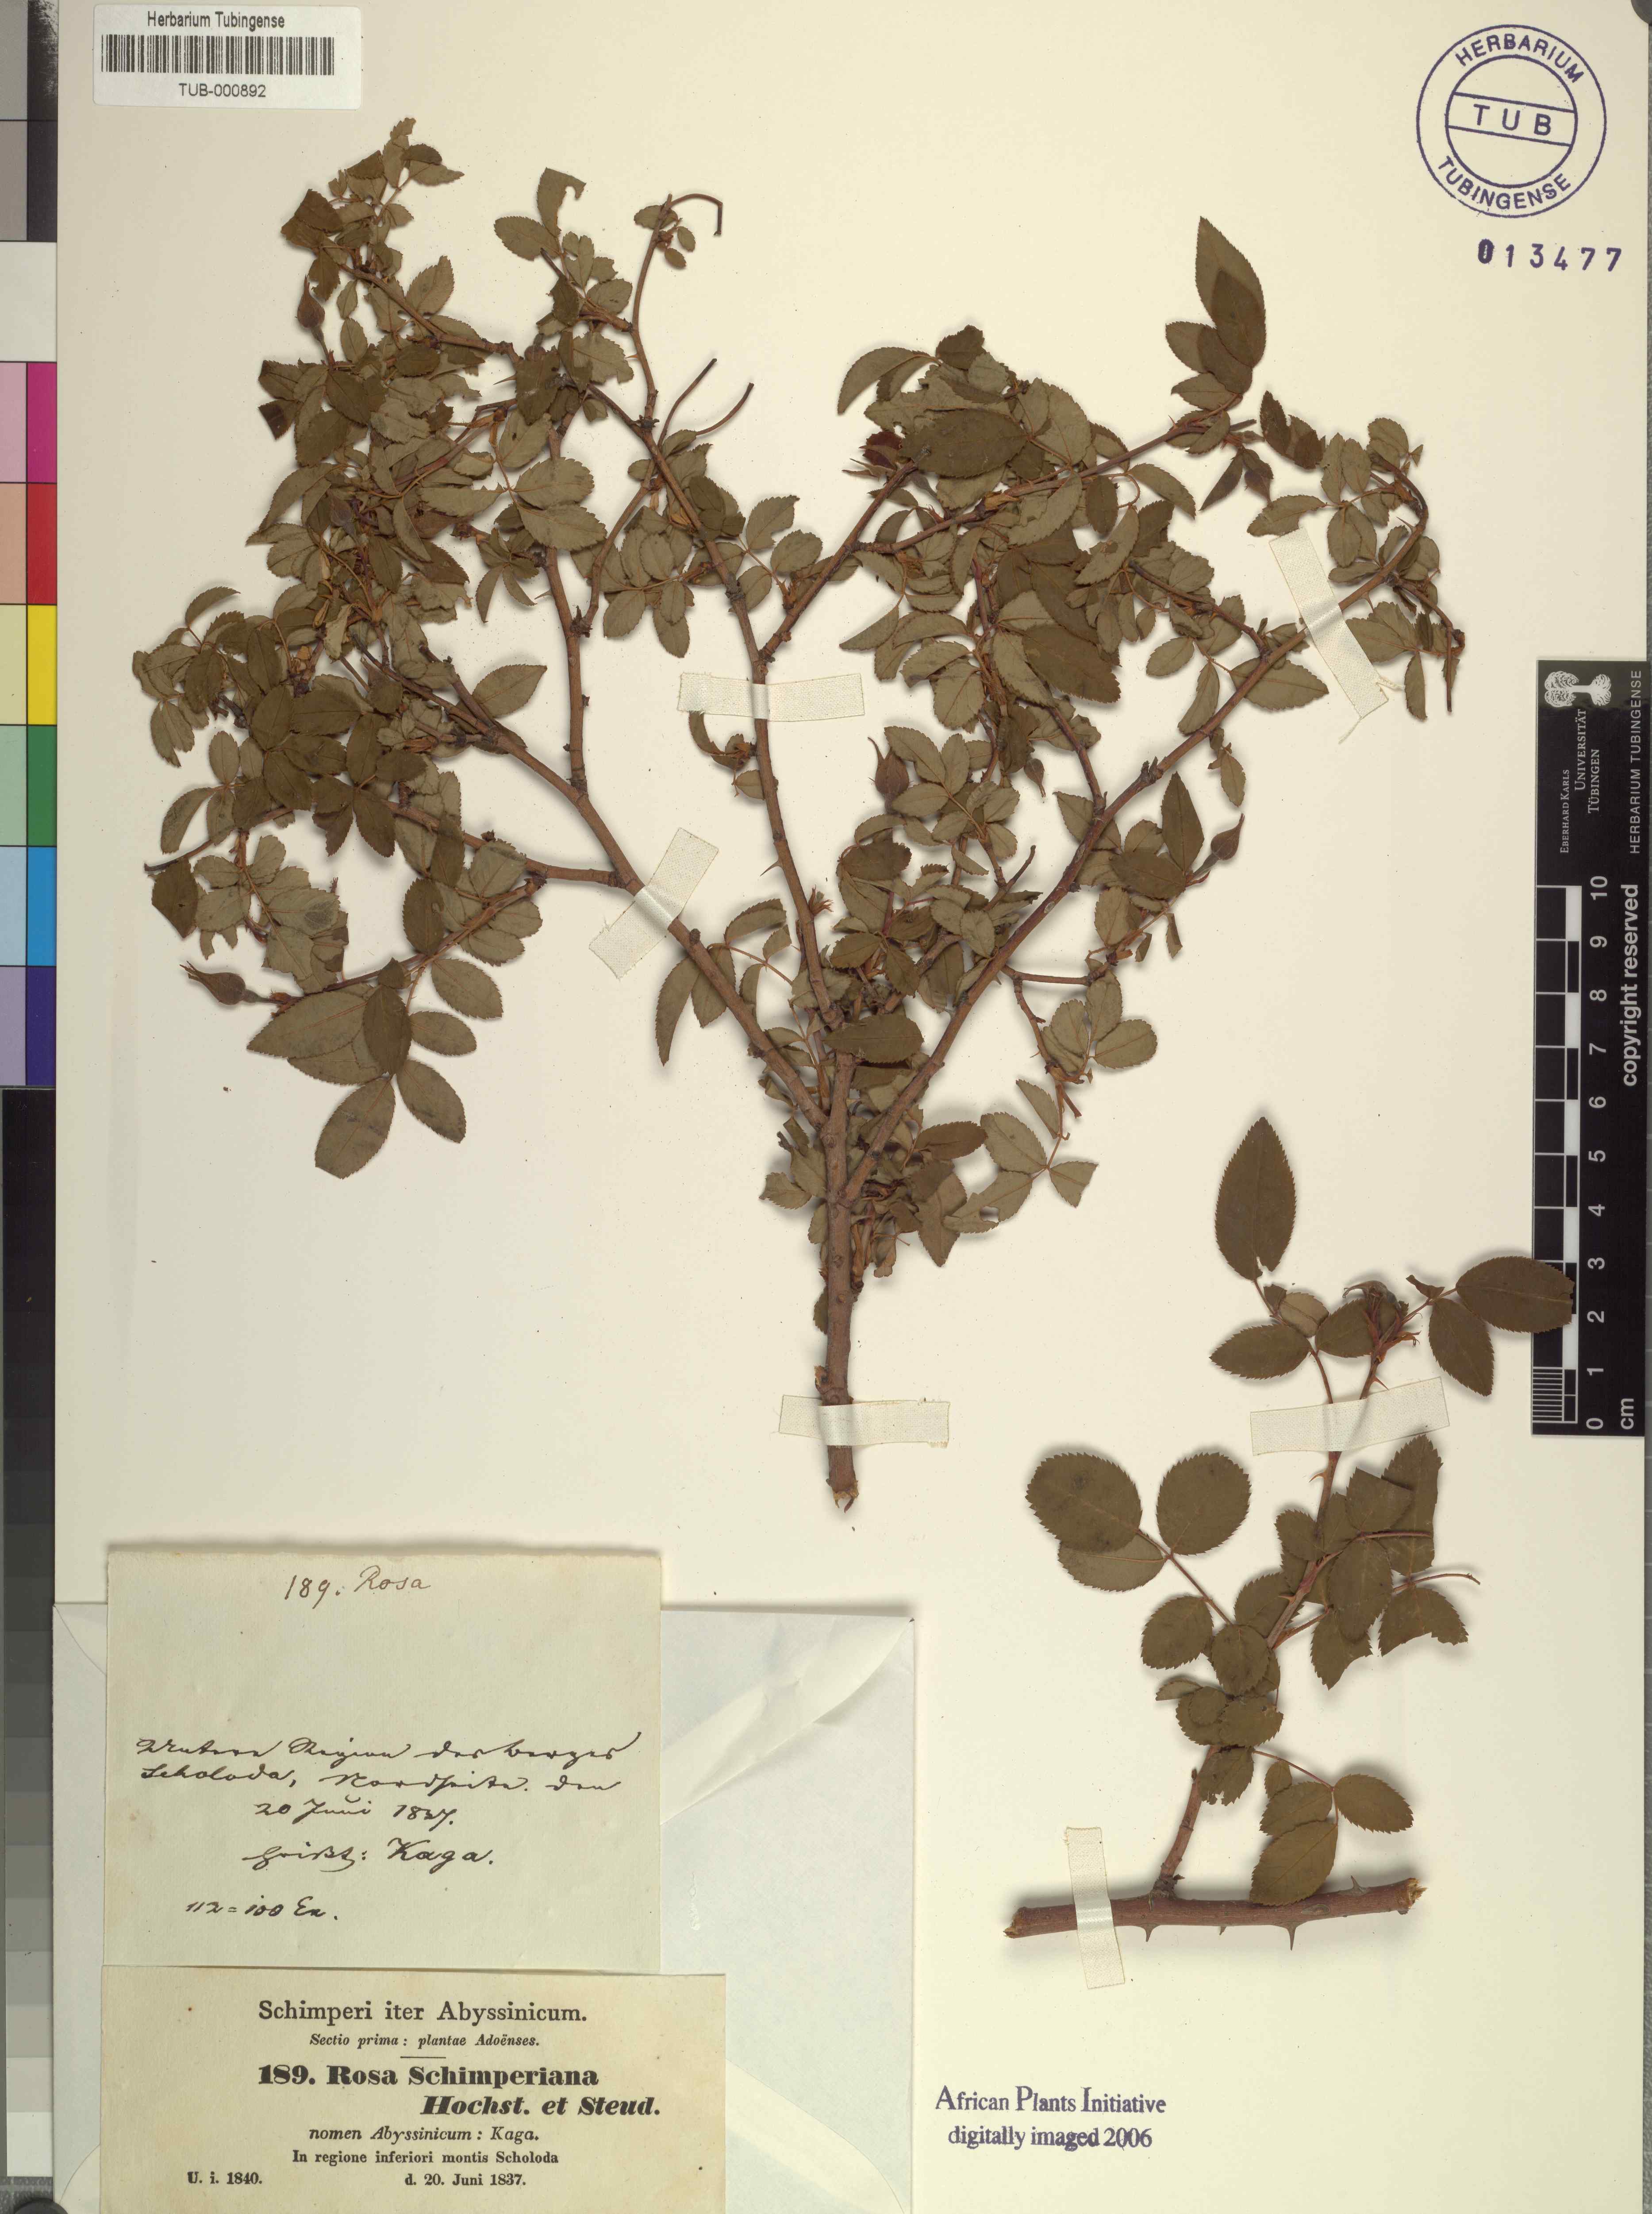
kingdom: Plantae
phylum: Tracheophyta
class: Magnoliopsida
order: Rosales
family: Rosaceae
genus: Rosa
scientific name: Rosa abyssinica
